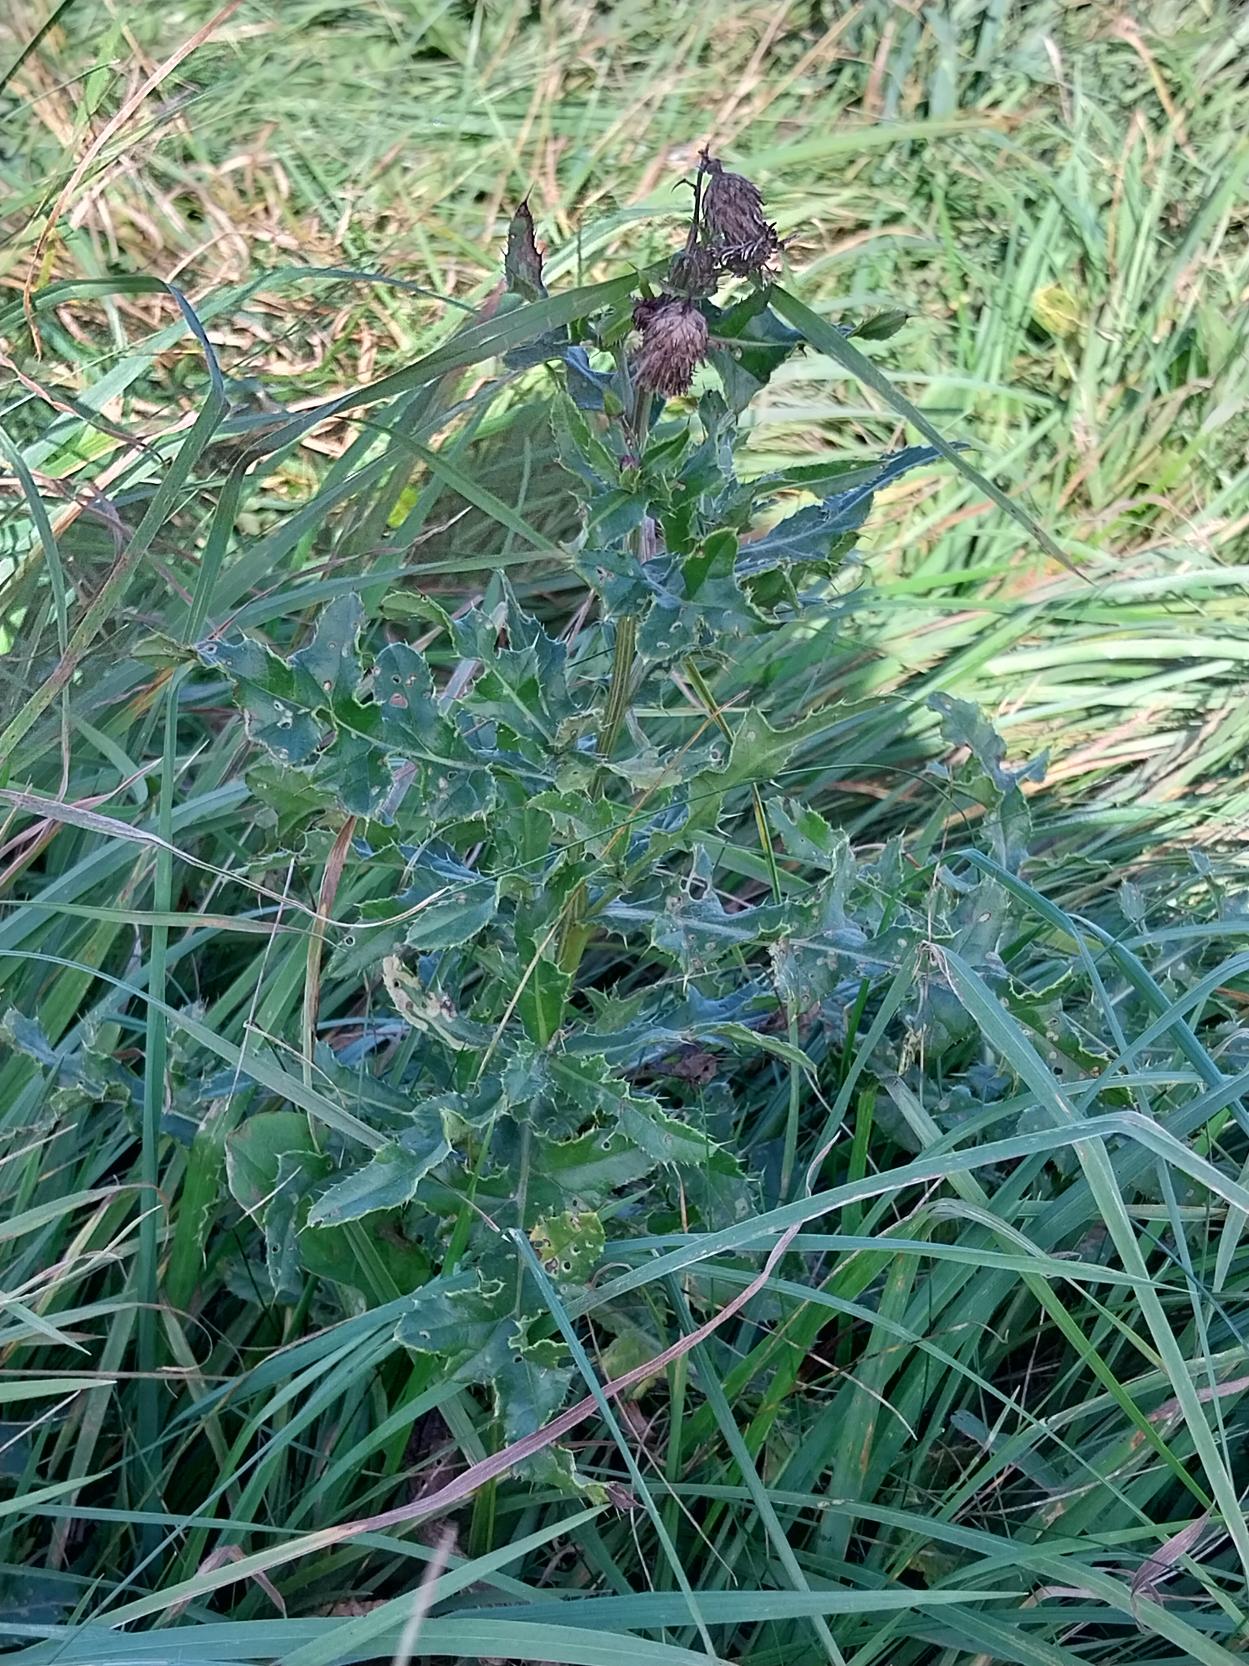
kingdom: Plantae
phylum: Tracheophyta
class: Magnoliopsida
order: Asterales
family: Asteraceae
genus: Cirsium
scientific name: Cirsium arvense
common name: Ager-tidsel
